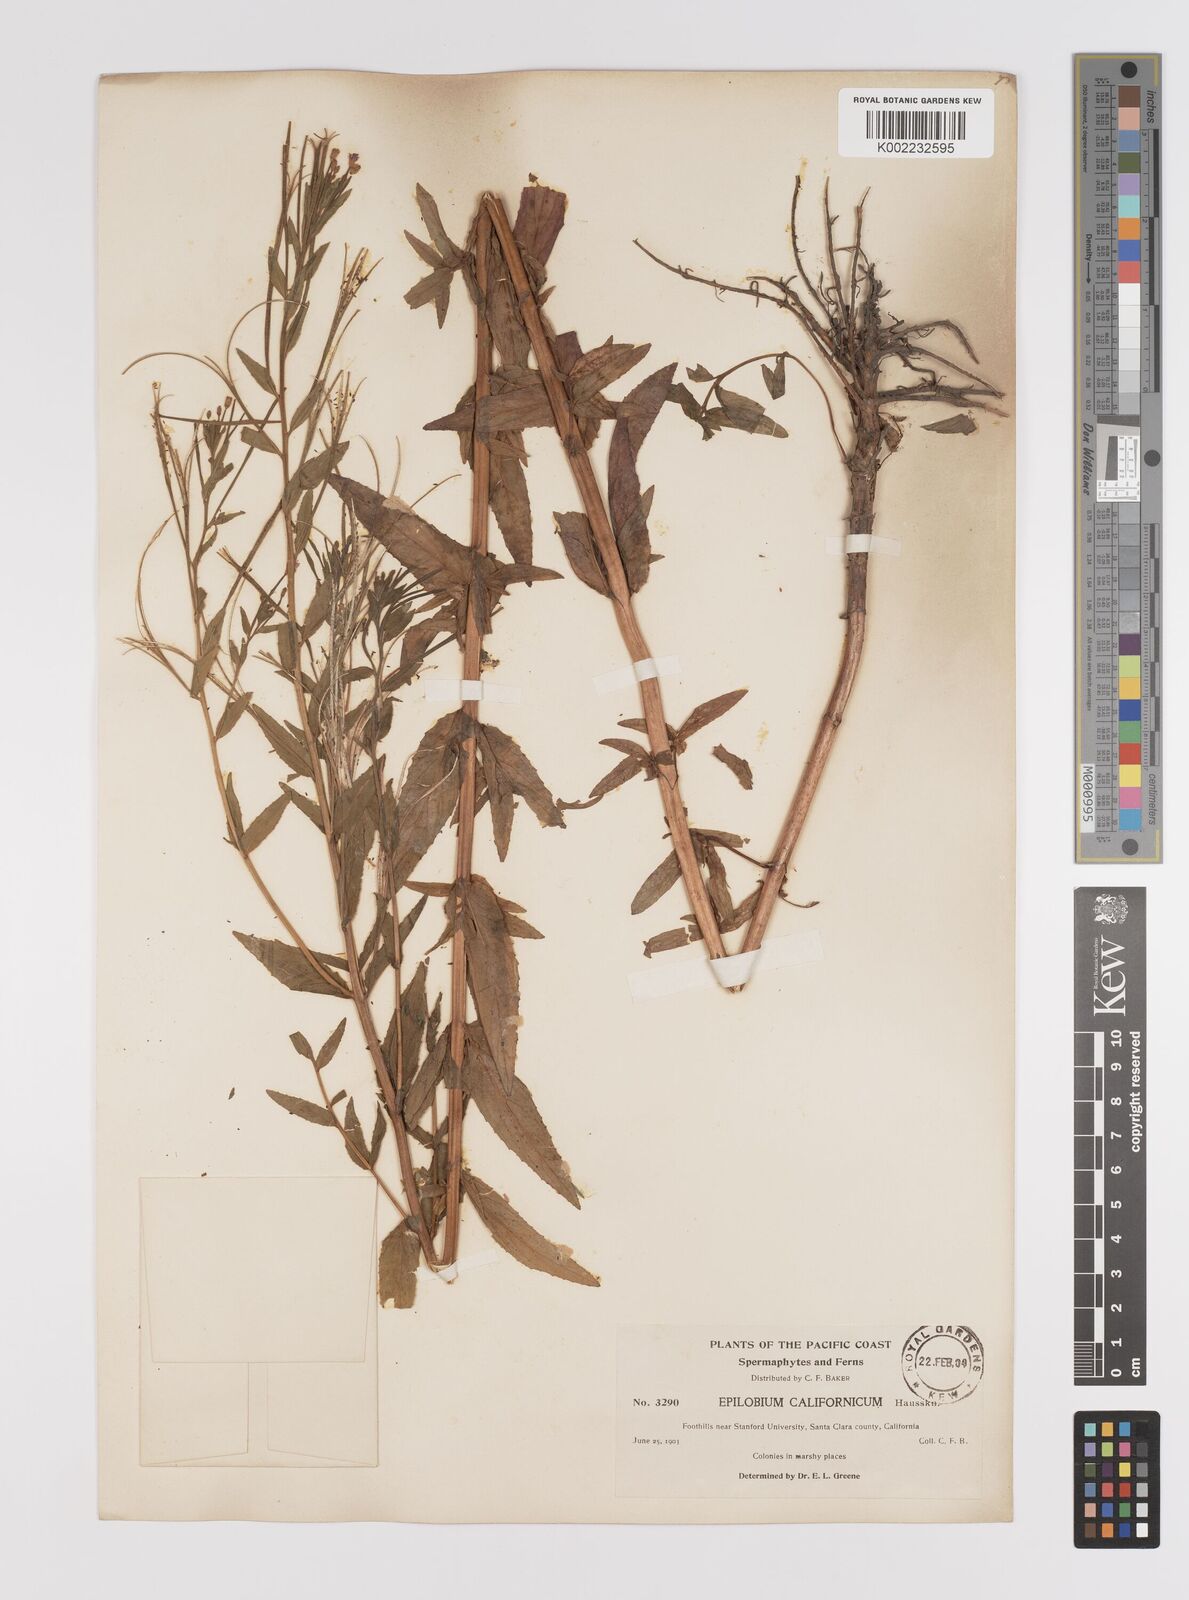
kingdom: Plantae
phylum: Tracheophyta
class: Magnoliopsida
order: Myrtales
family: Onagraceae
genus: Epilobium
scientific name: Epilobium ciliatum
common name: American willowherb
